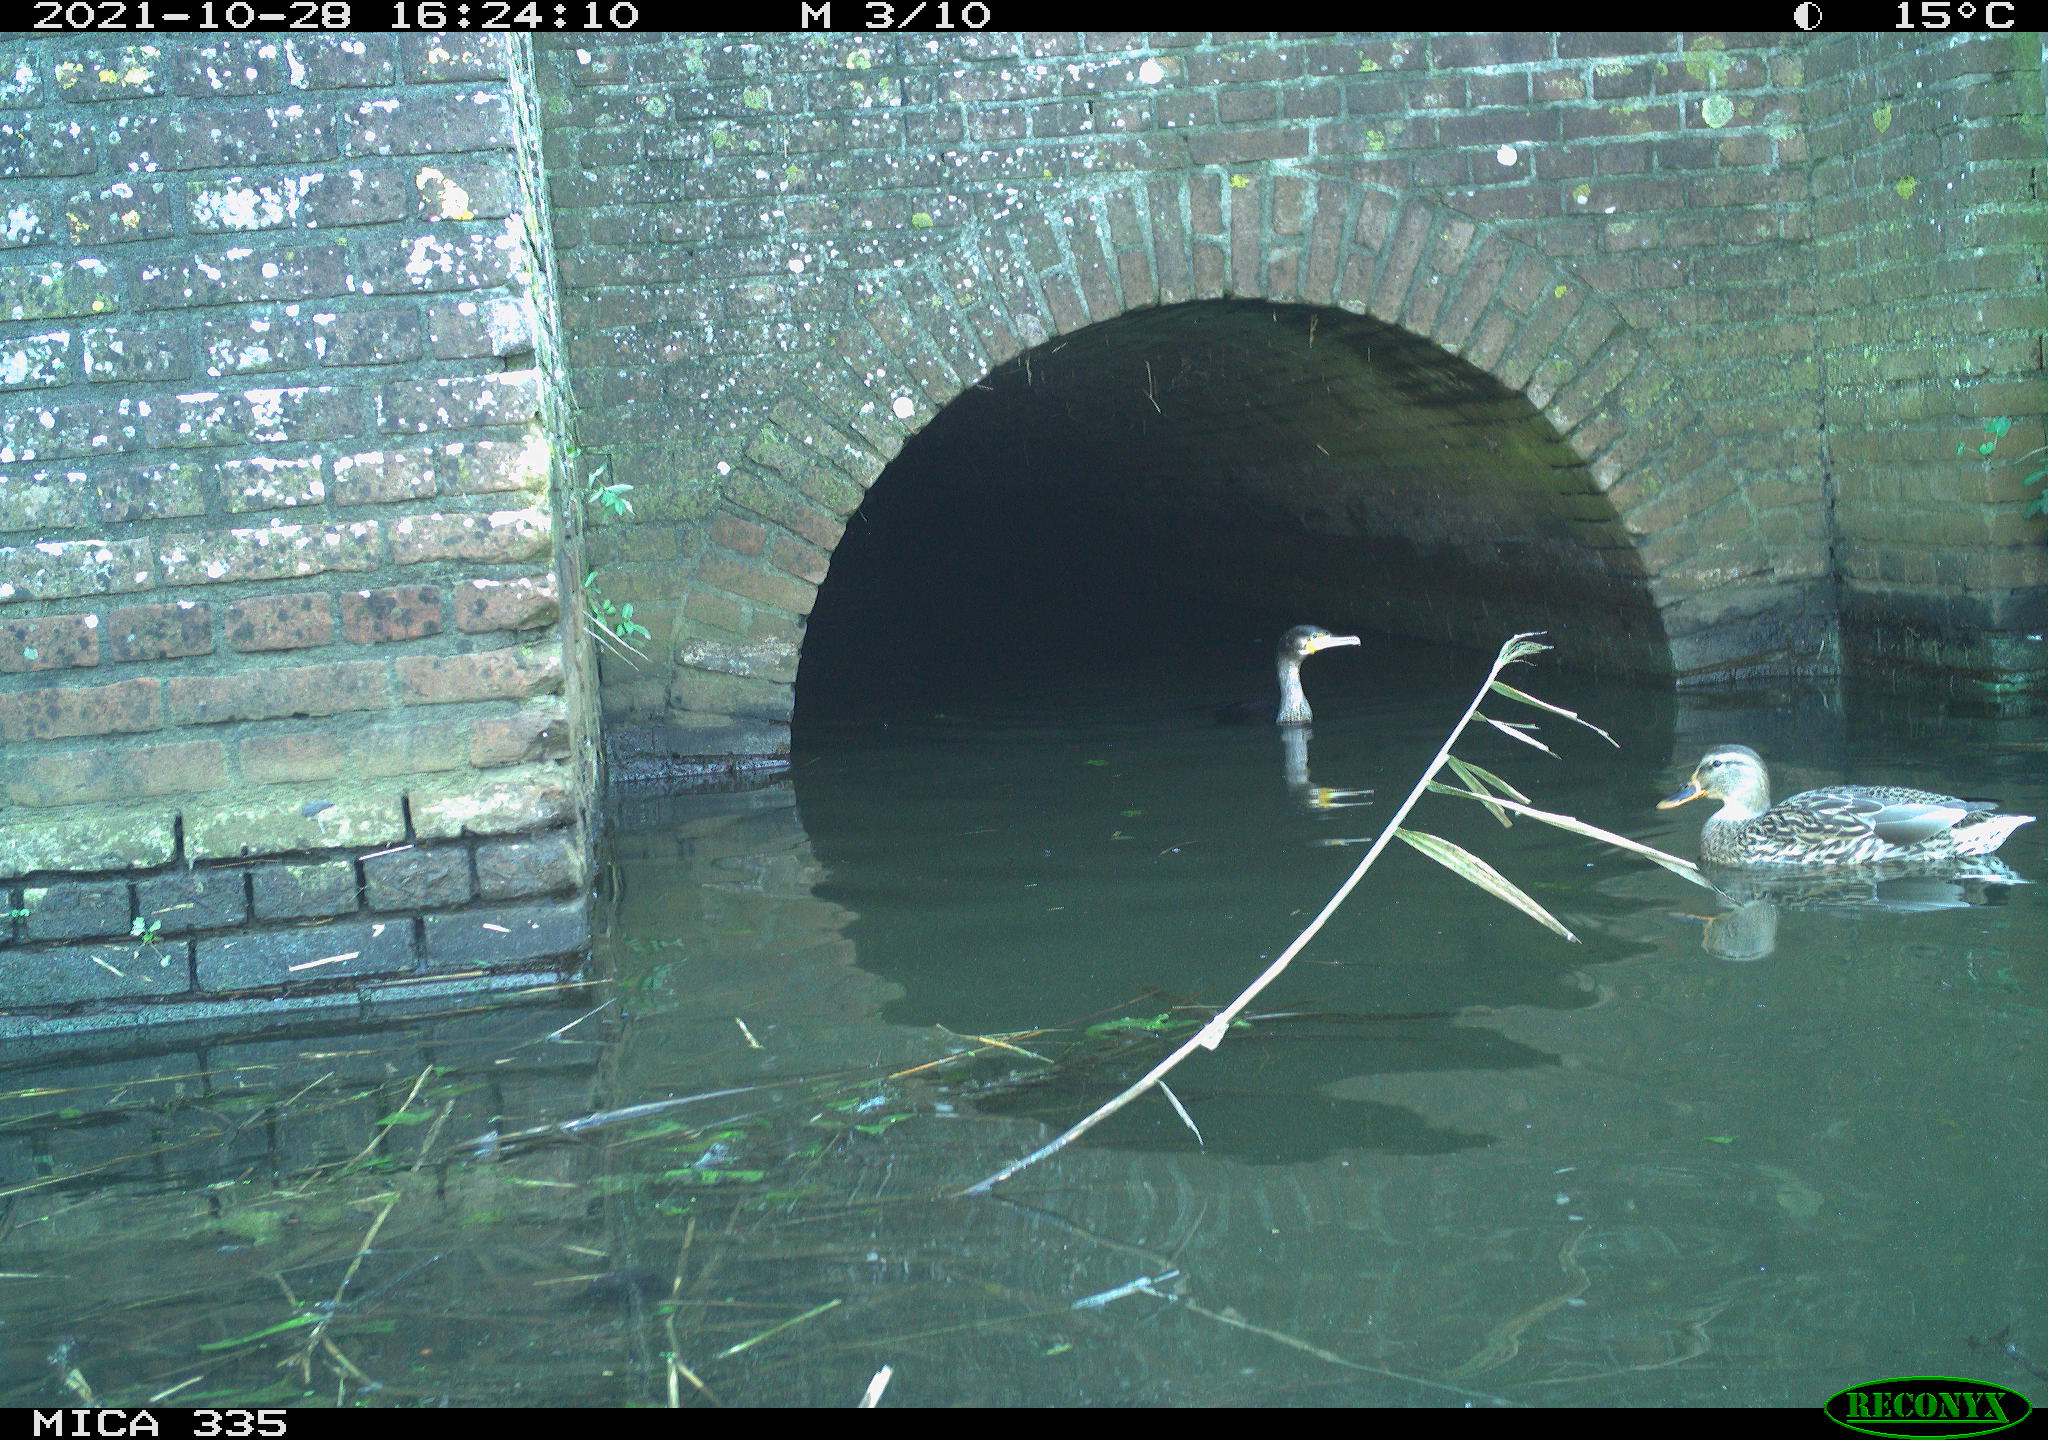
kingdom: Animalia
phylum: Chordata
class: Aves
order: Suliformes
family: Phalacrocoracidae
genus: Phalacrocorax
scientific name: Phalacrocorax carbo
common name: Great cormorant
